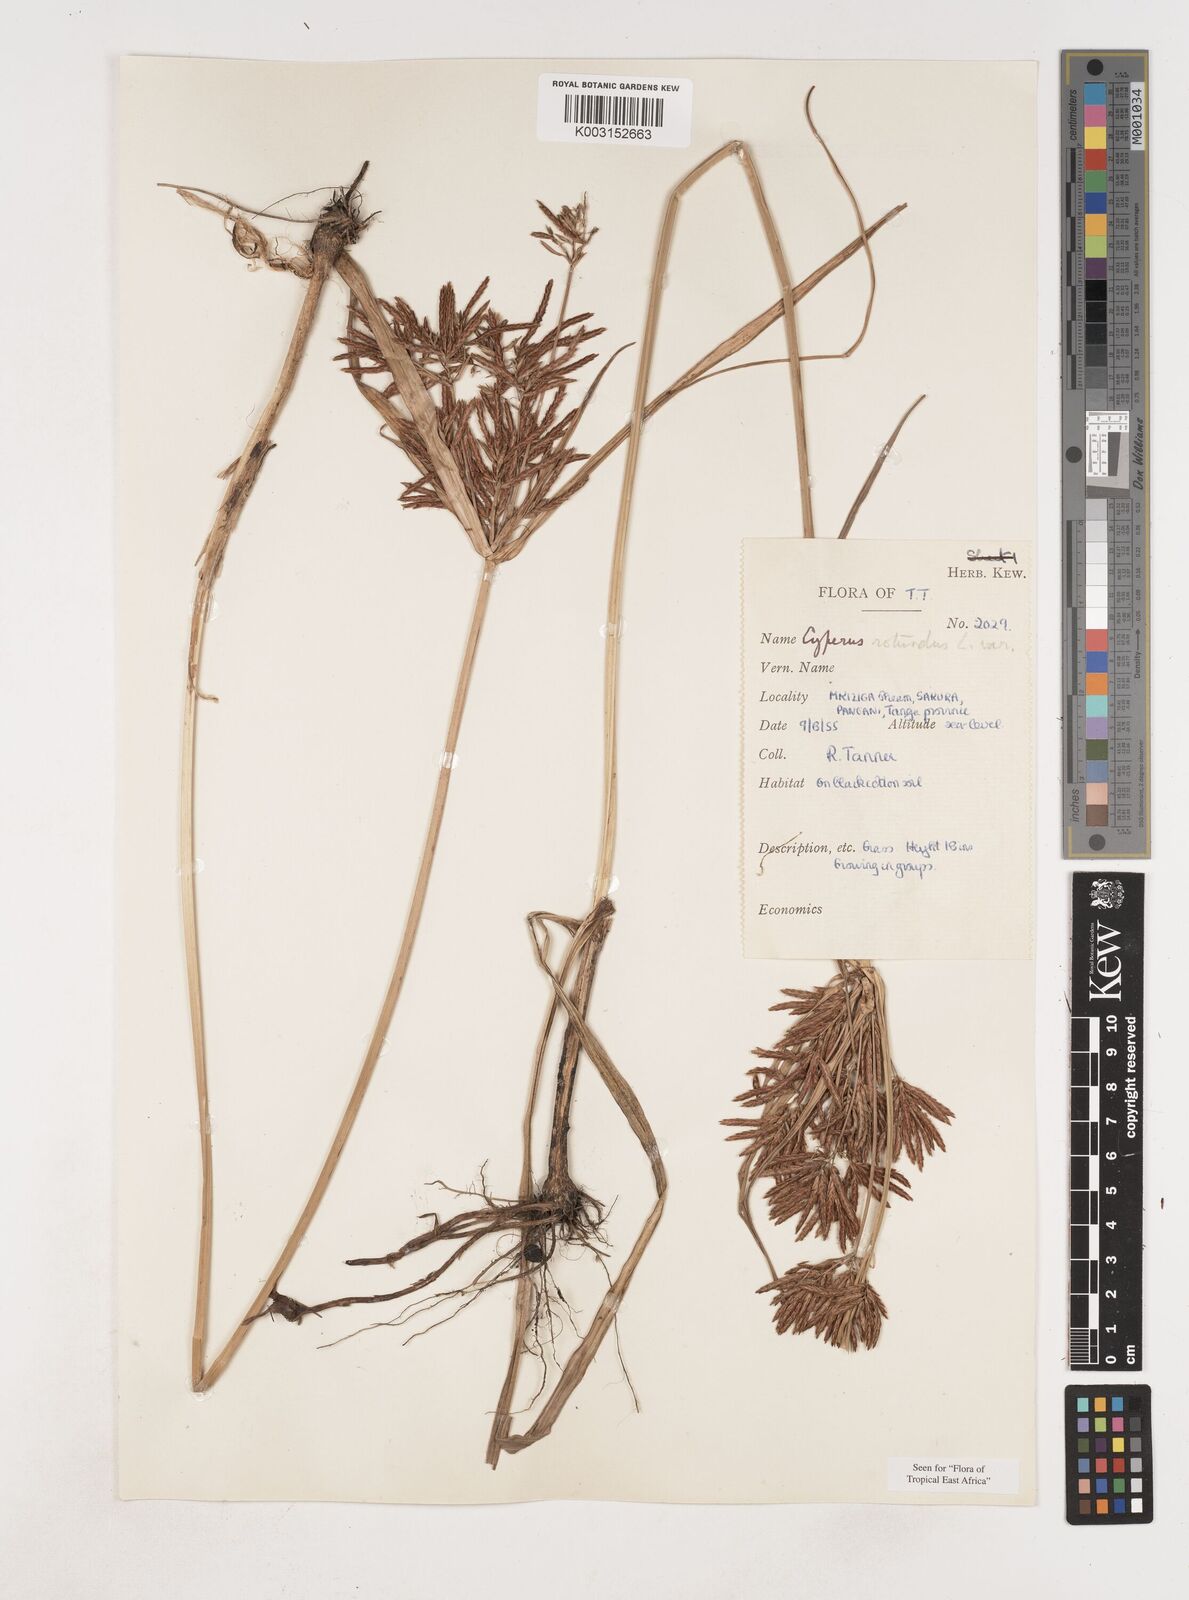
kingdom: Plantae
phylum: Tracheophyta
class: Liliopsida
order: Poales
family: Cyperaceae
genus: Cyperus
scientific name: Cyperus rotundus
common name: Nutgrass
